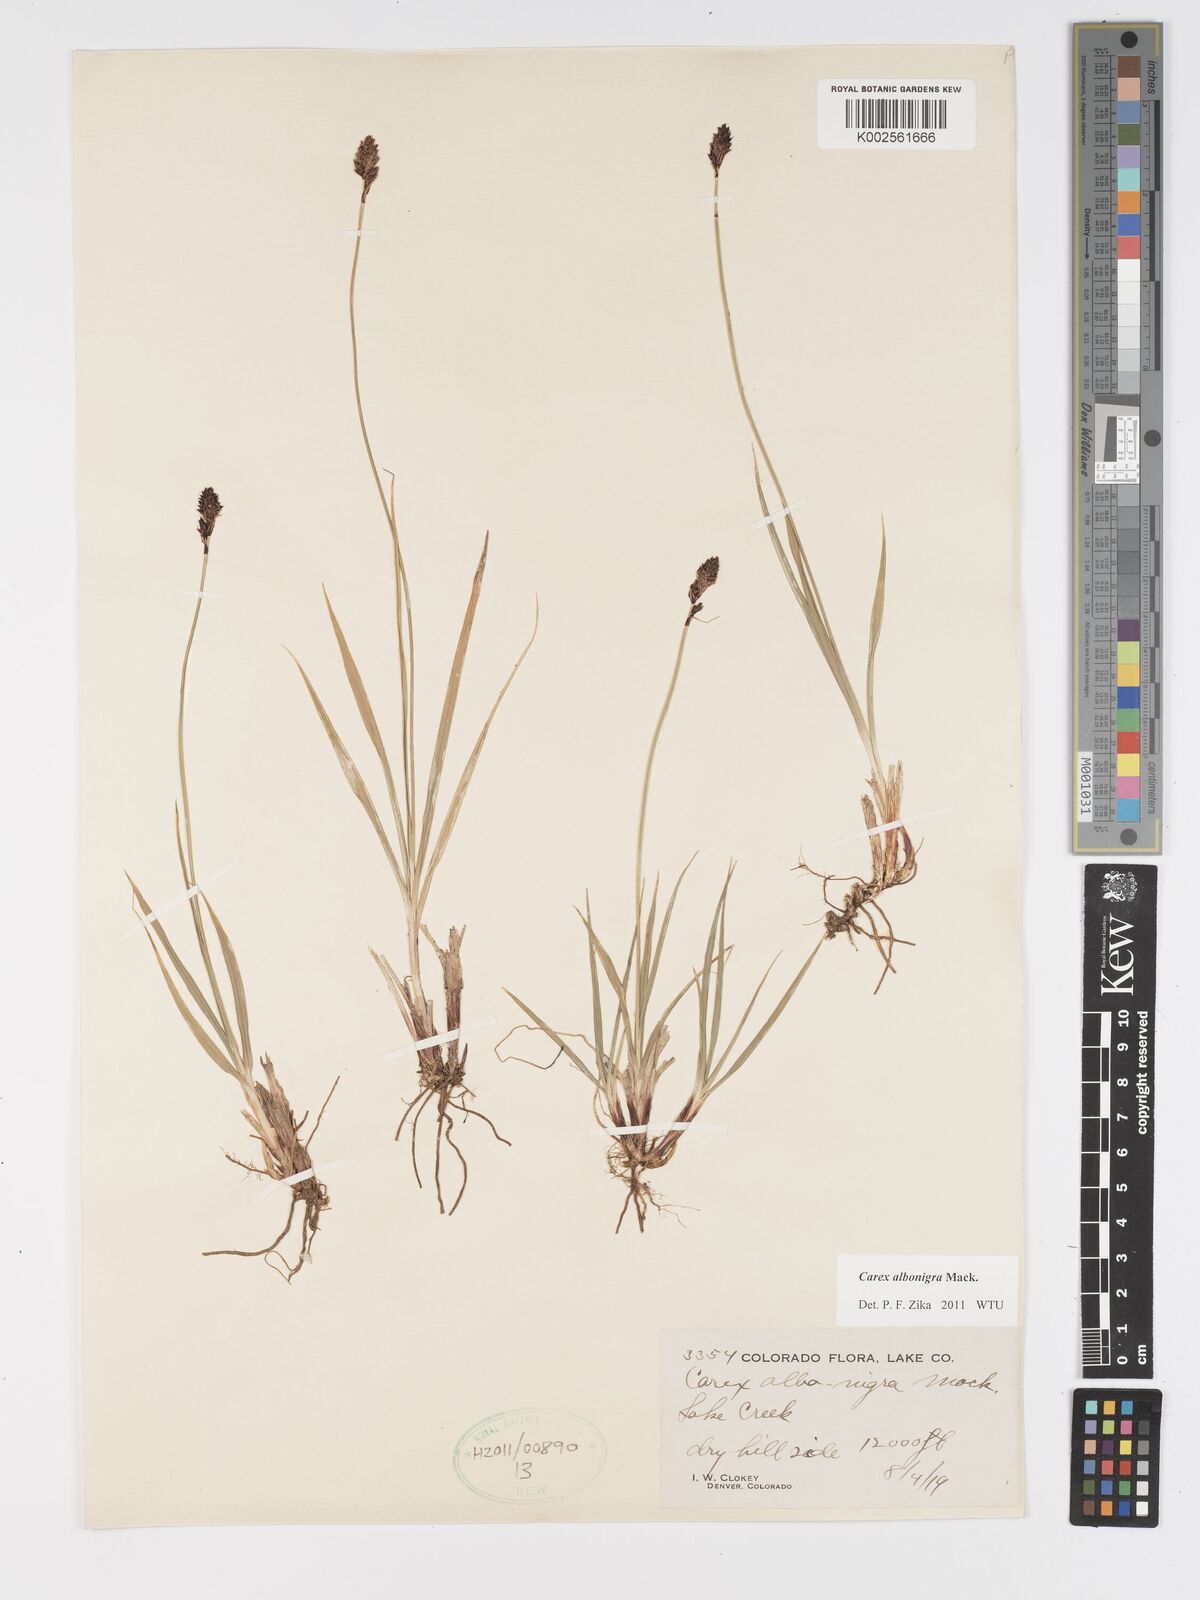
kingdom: Plantae
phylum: Tracheophyta
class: Liliopsida
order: Poales
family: Cyperaceae
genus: Carex
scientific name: Carex albonigra
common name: Black-and-white sedge
